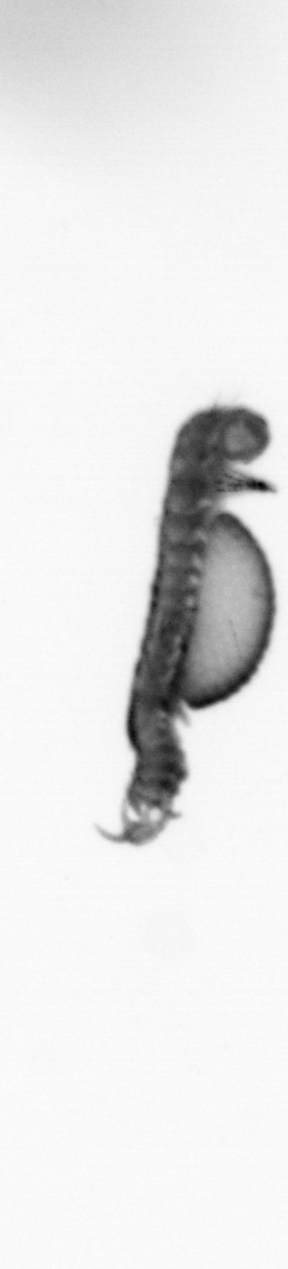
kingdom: Animalia
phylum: Annelida
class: Polychaeta
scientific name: Polychaeta
